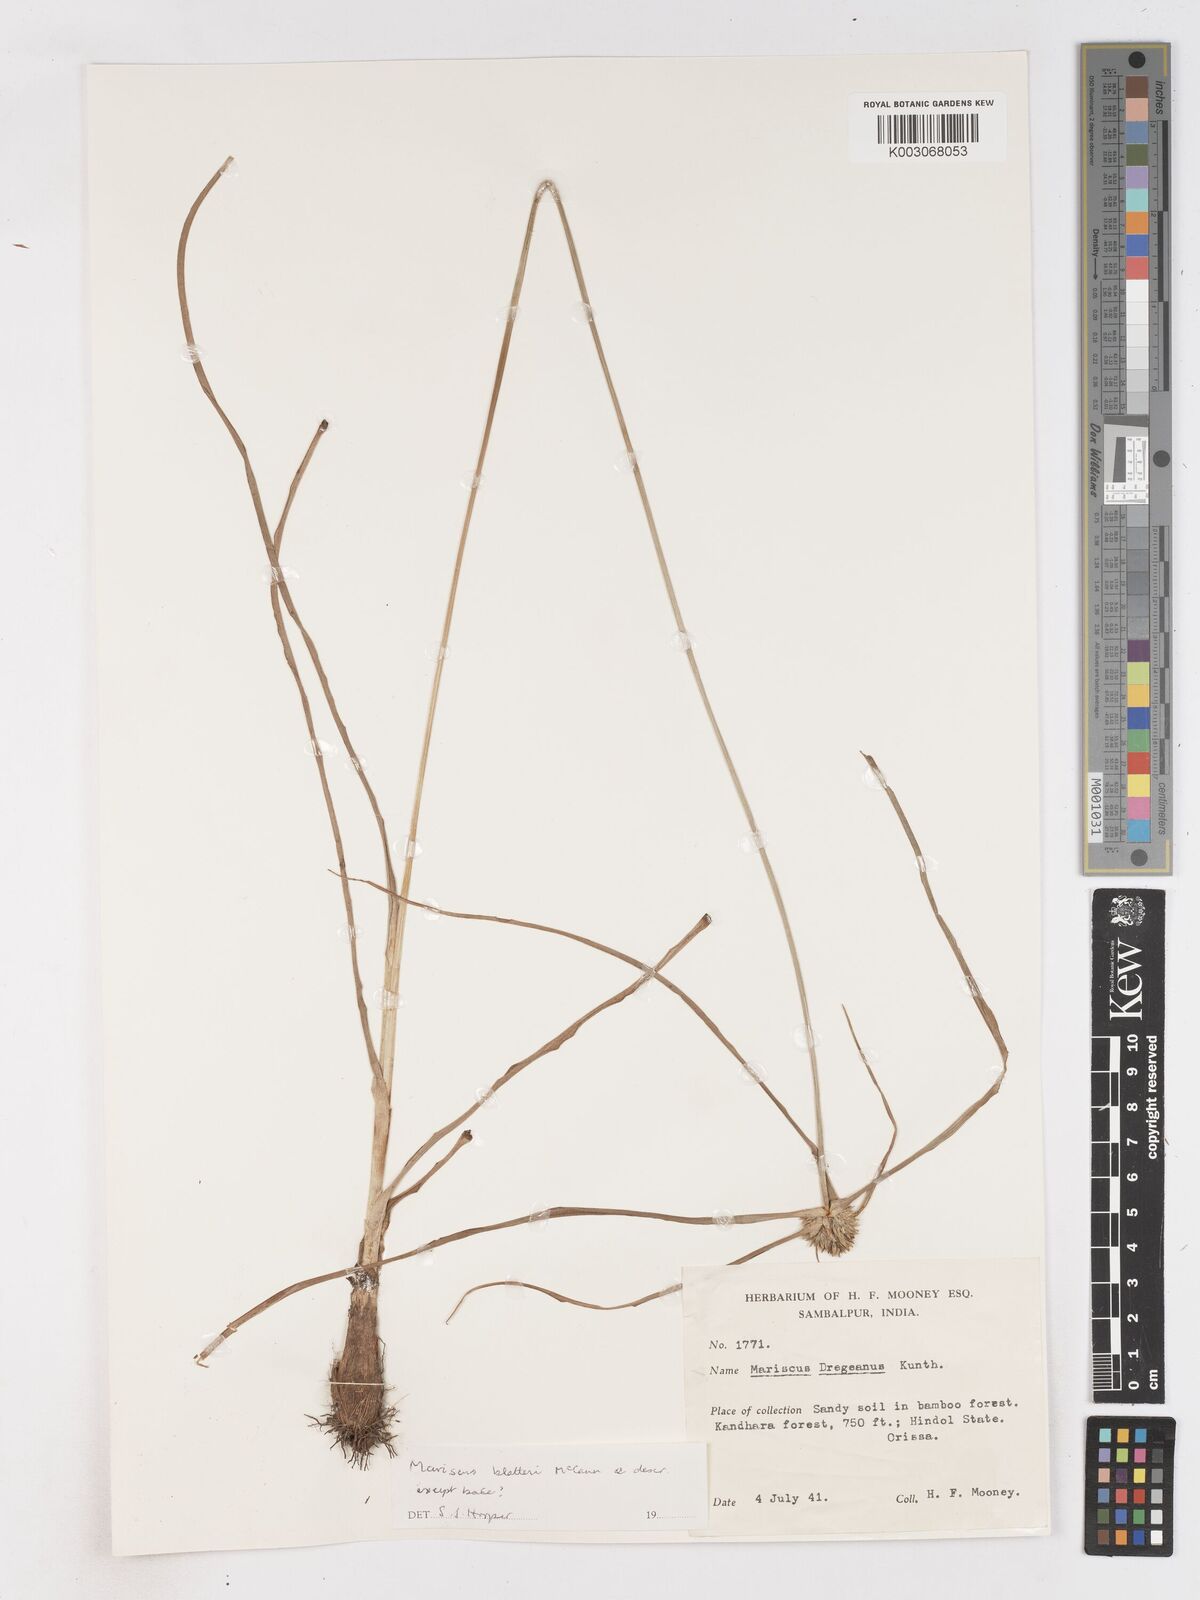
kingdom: Plantae
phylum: Tracheophyta
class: Liliopsida
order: Poales
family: Cyperaceae
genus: Cyperus
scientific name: Cyperus blatteri
